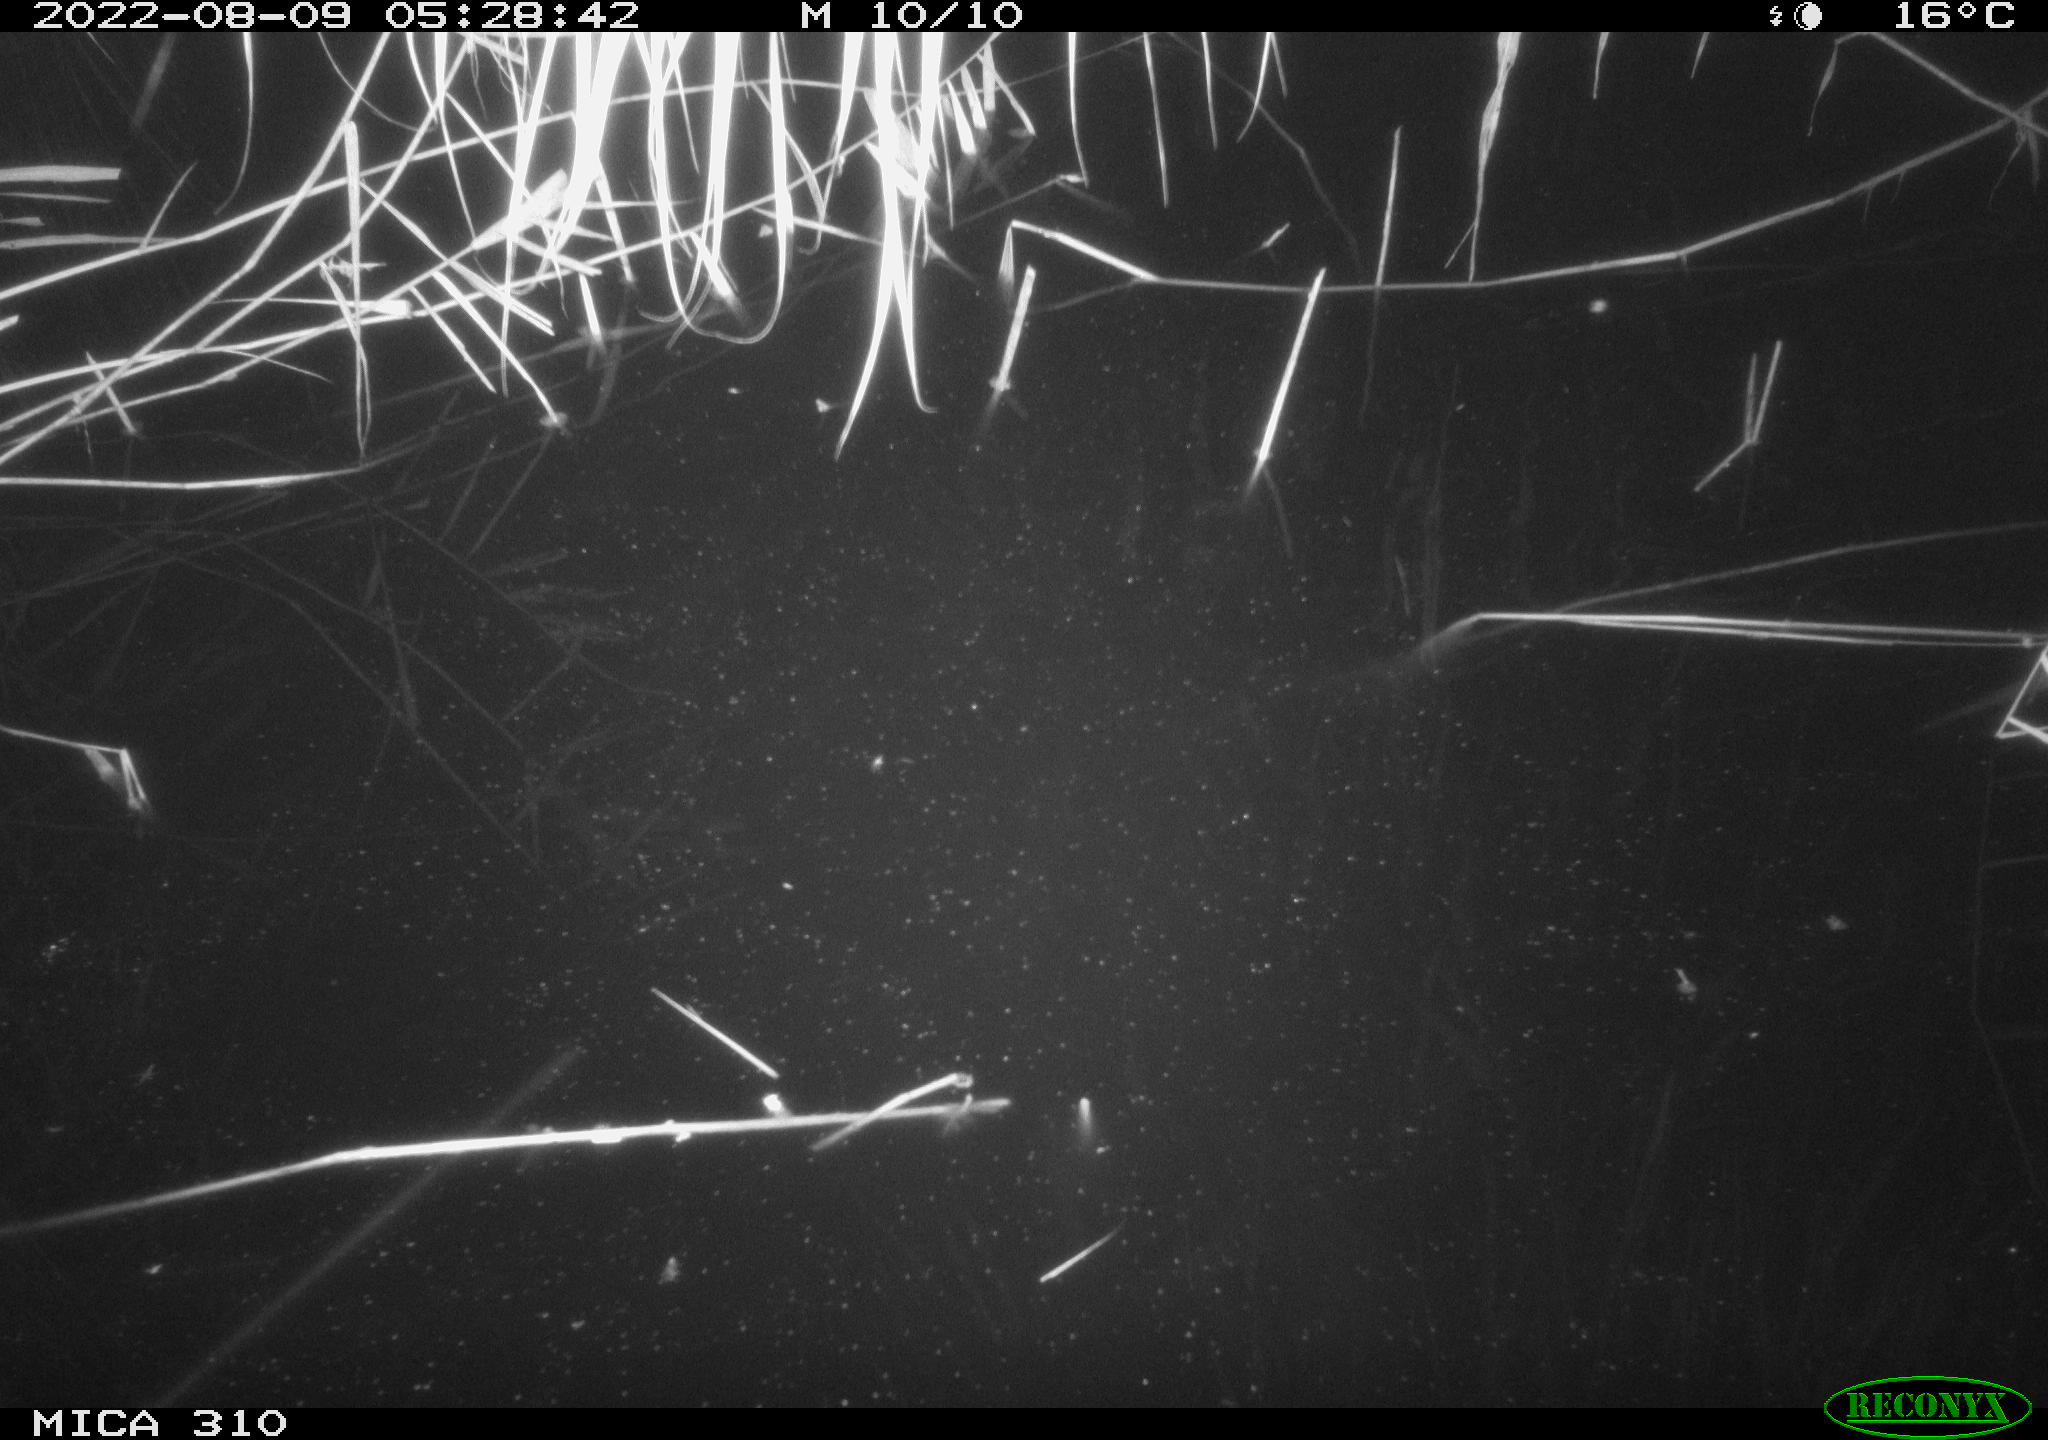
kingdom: Animalia
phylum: Chordata
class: Aves
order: Anseriformes
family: Anatidae
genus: Anas
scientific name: Anas platyrhynchos
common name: Mallard
